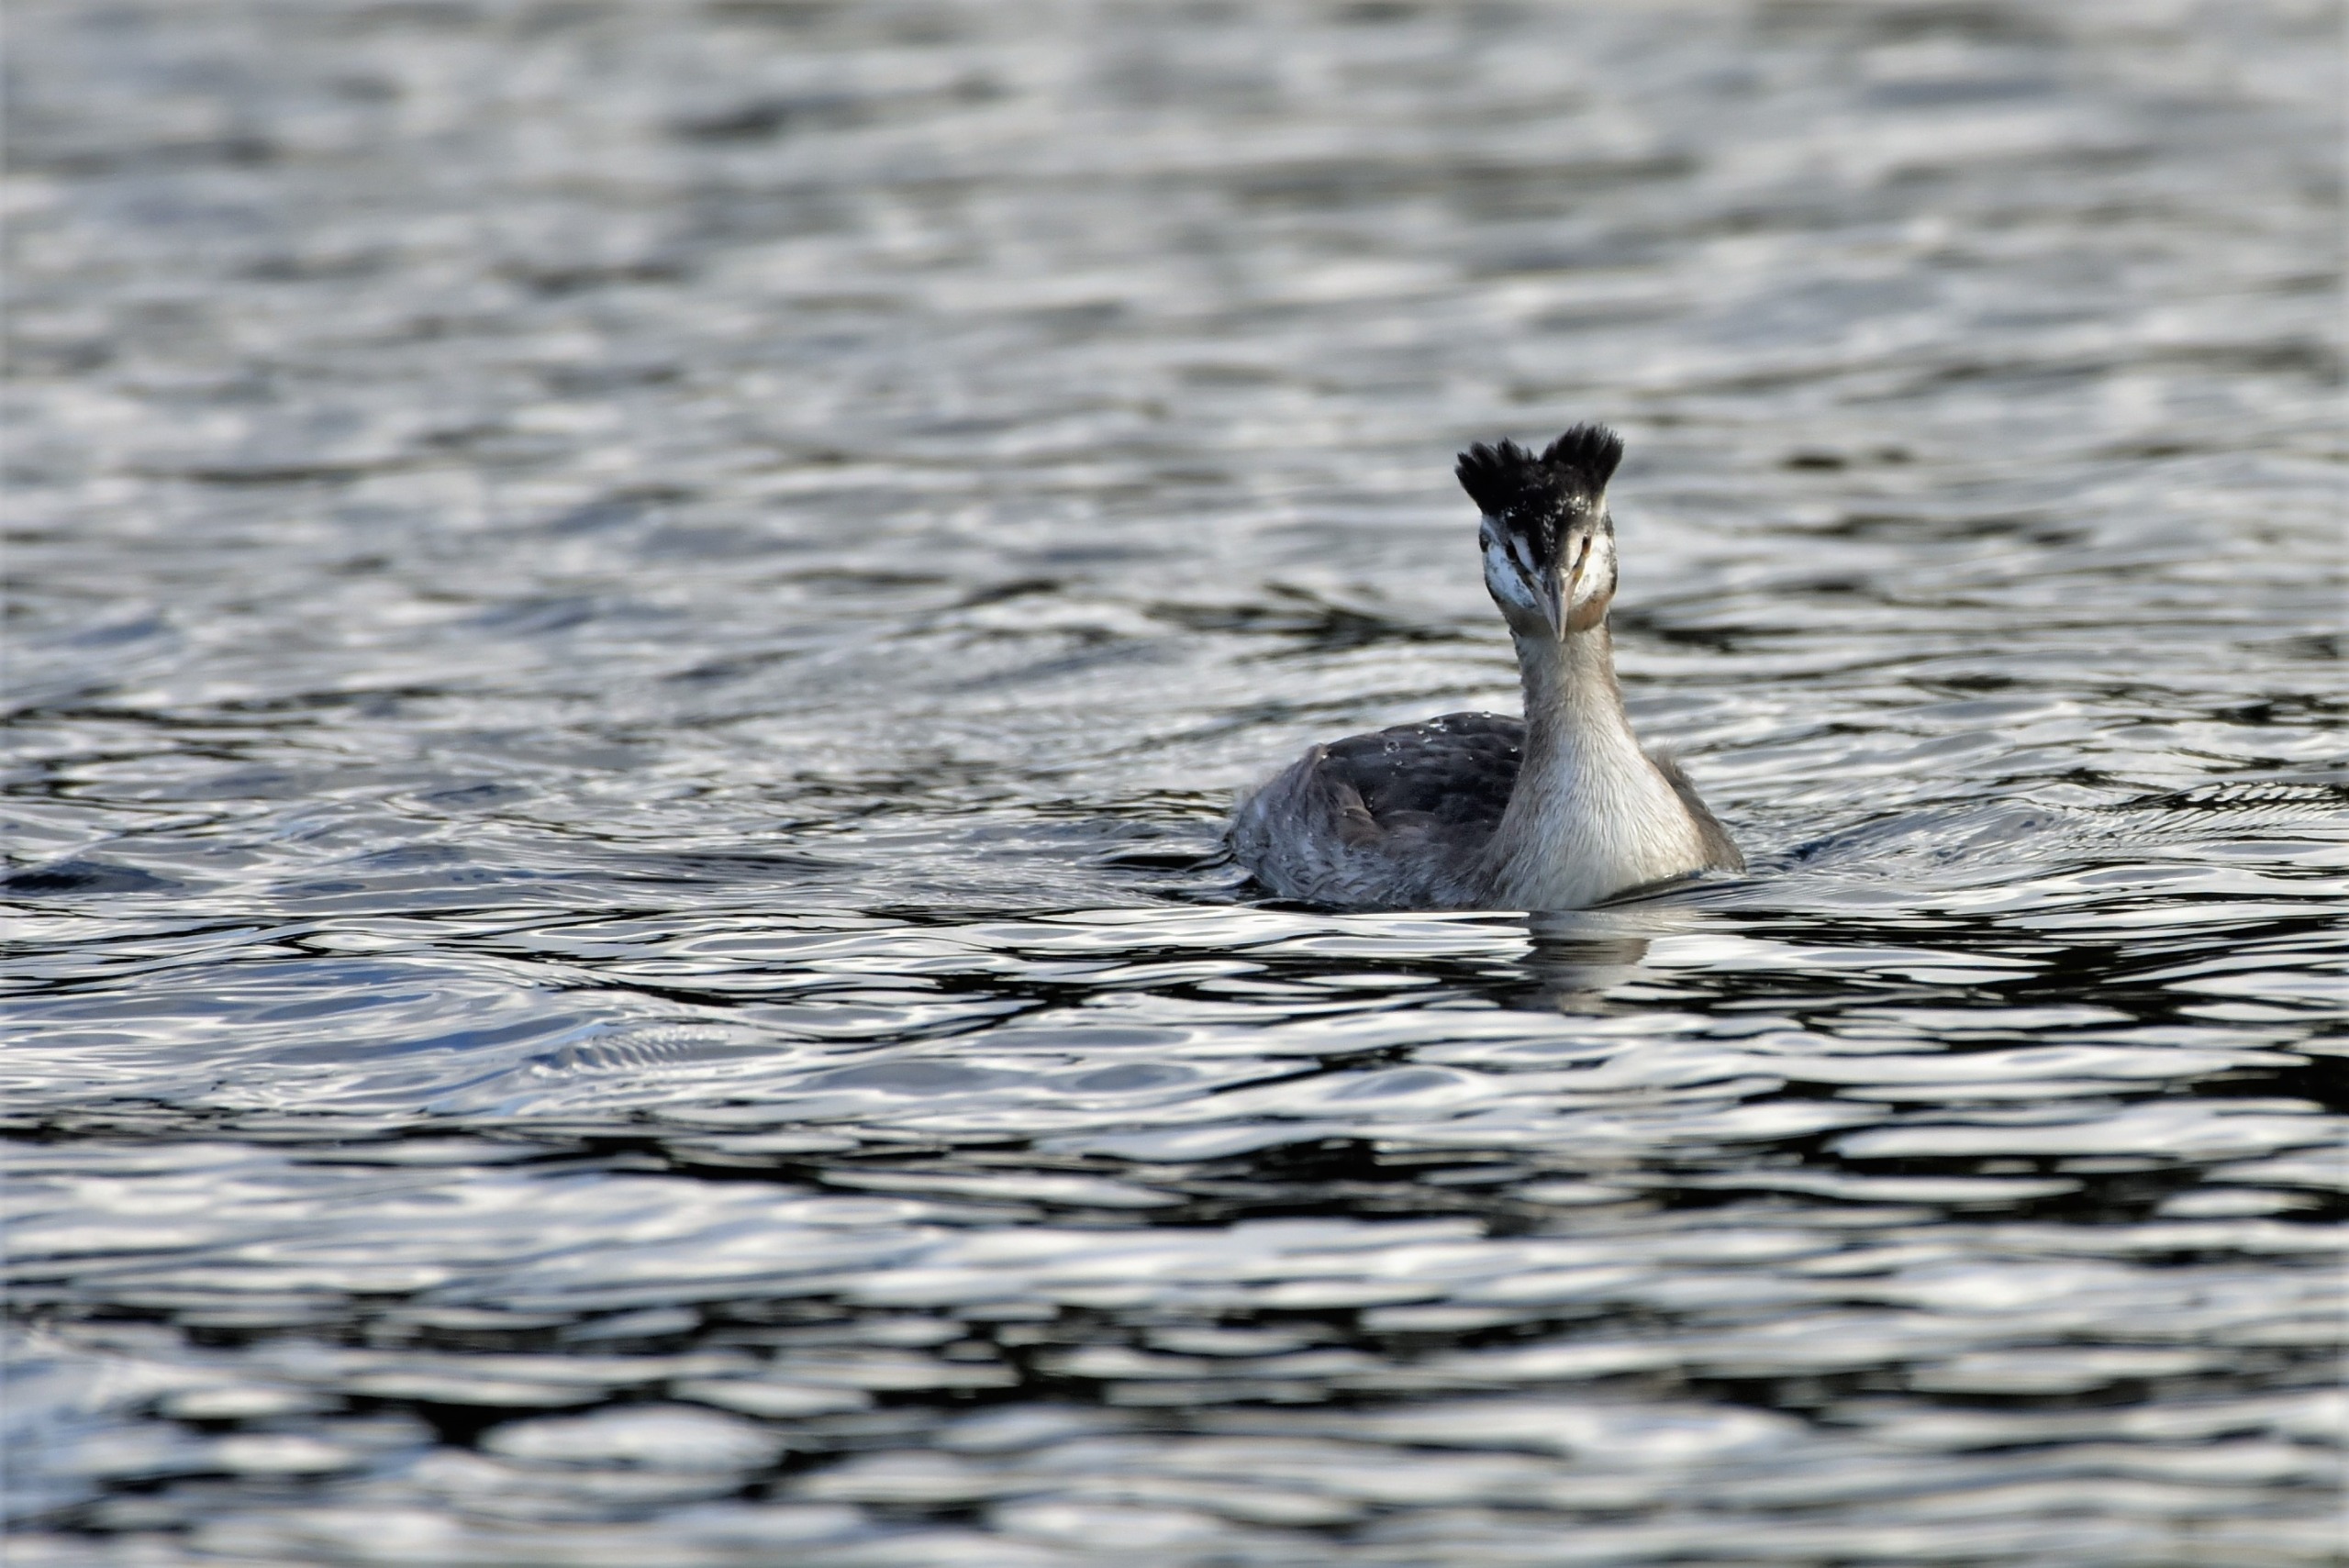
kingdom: Animalia
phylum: Chordata
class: Aves
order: Podicipediformes
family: Podicipedidae
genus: Podiceps
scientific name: Podiceps cristatus
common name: Toppet lappedykker
